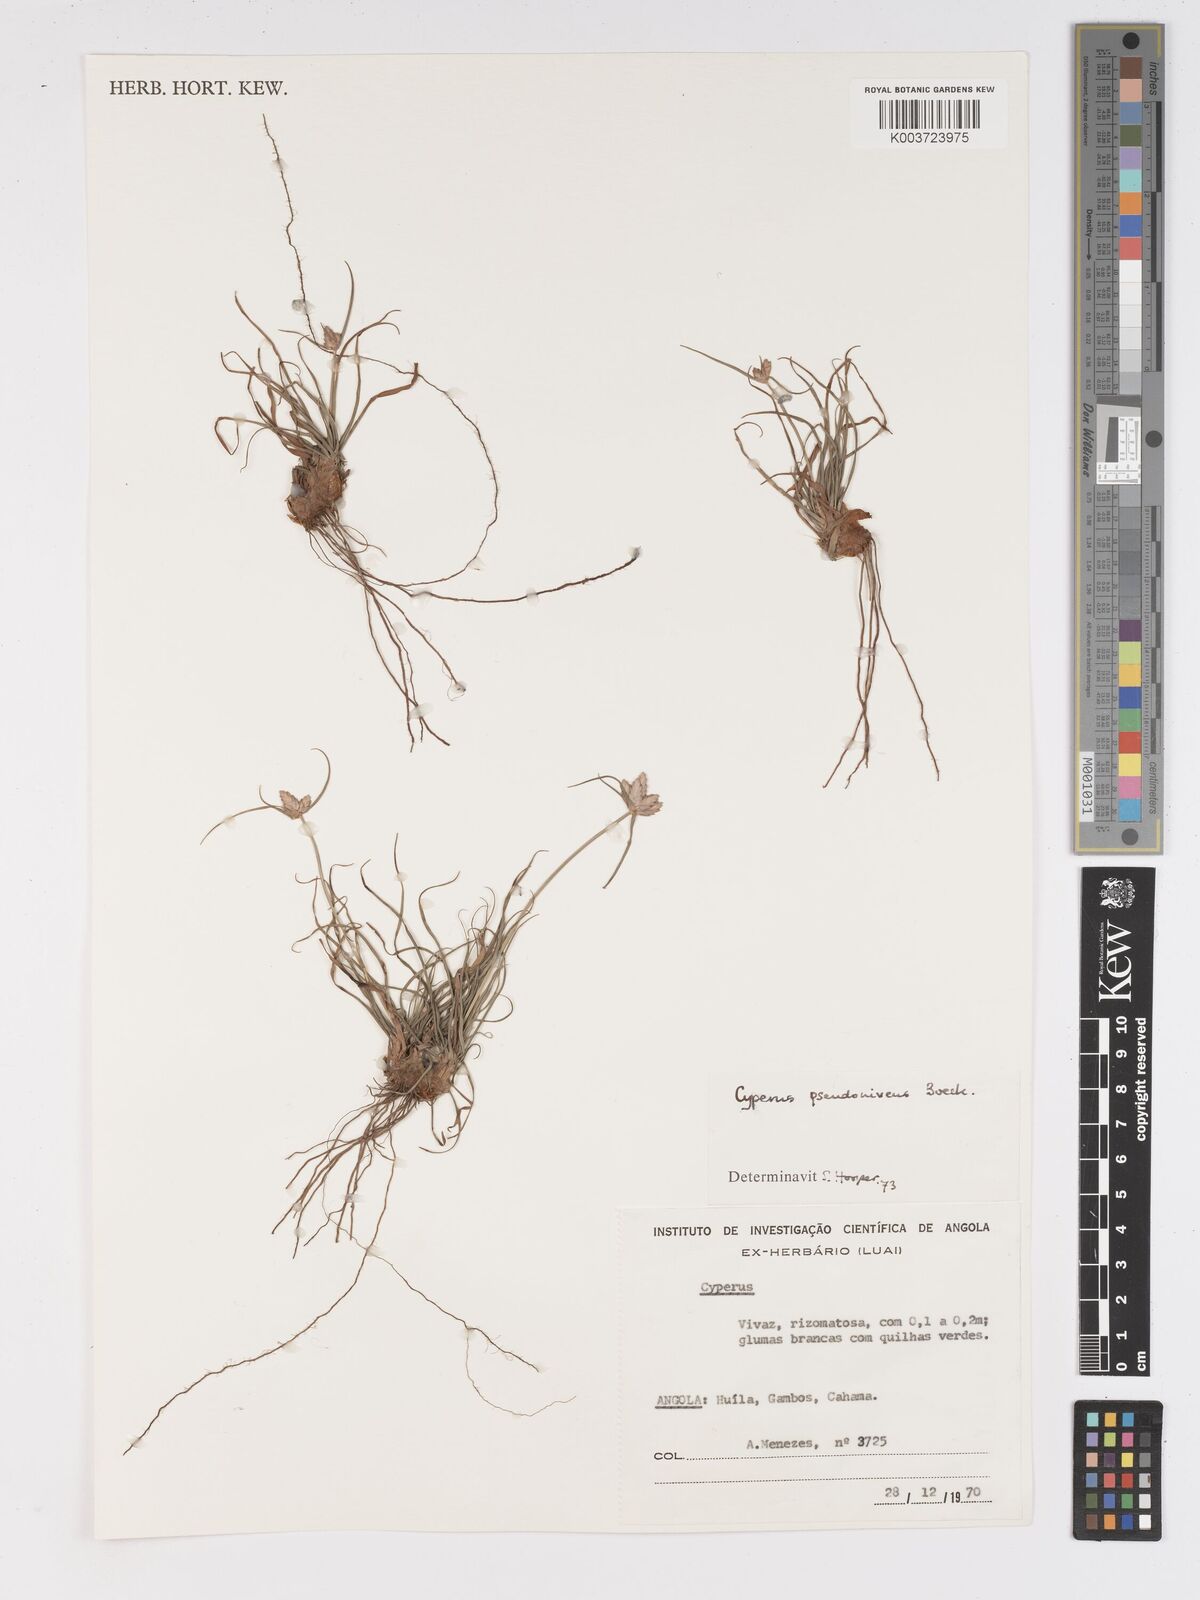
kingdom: Plantae
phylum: Tracheophyta
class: Liliopsida
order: Poales
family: Cyperaceae
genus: Cyperus
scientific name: Cyperus margaritaceus
